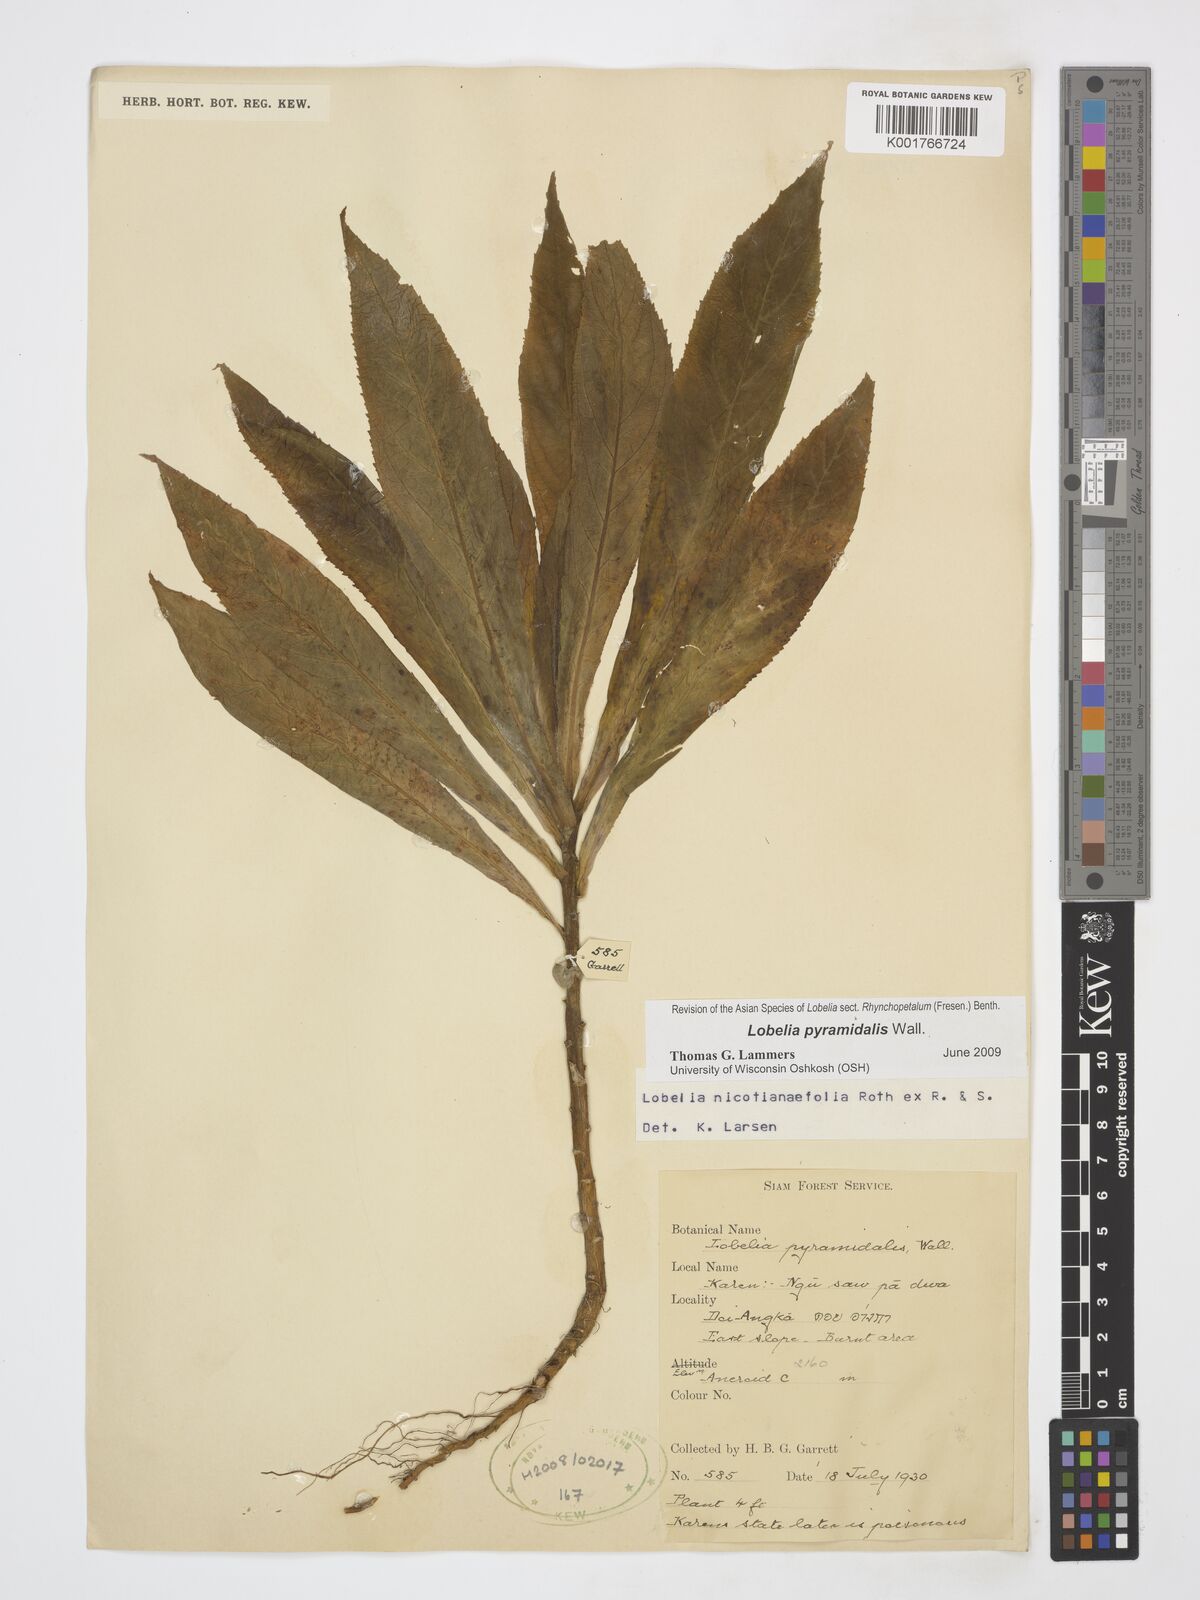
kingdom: Plantae
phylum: Tracheophyta
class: Magnoliopsida
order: Asterales
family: Campanulaceae
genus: Lobelia
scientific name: Lobelia pyramidalis
